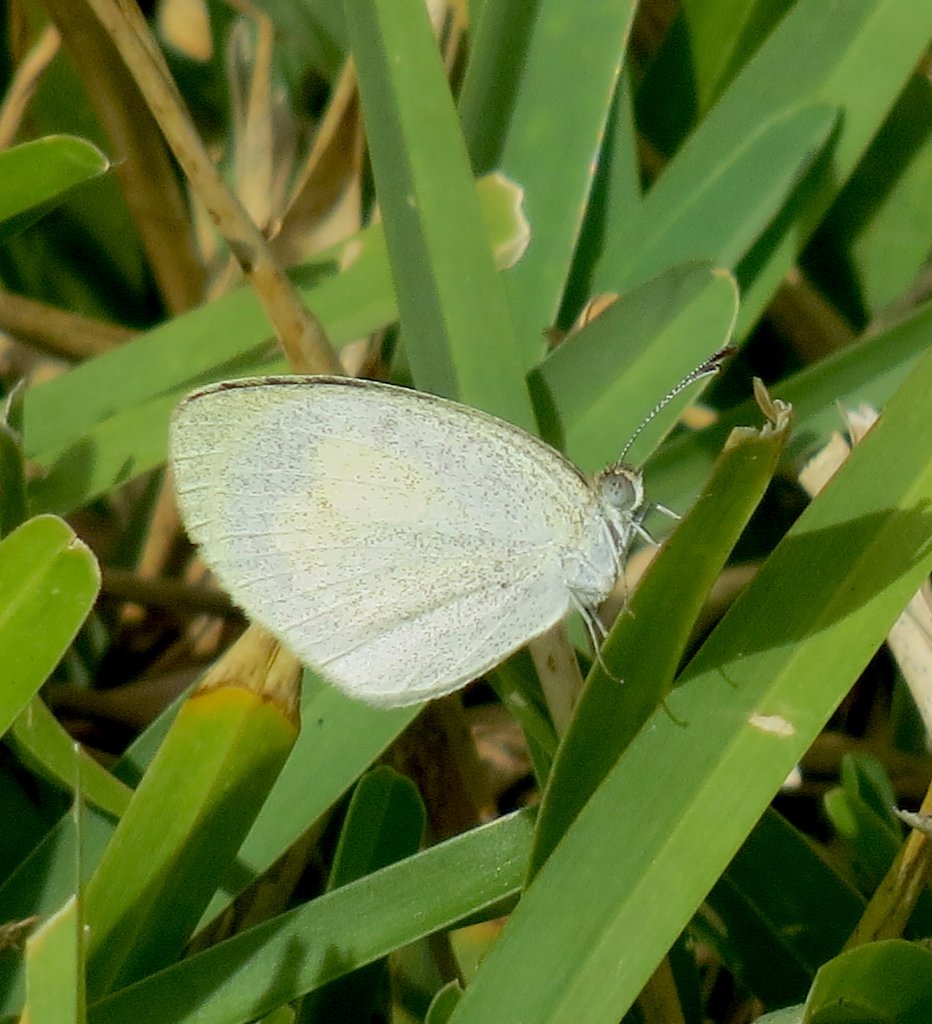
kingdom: Animalia
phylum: Arthropoda
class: Insecta
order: Lepidoptera
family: Pieridae
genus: Eurema
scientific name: Eurema daira
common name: Barred Yellow
